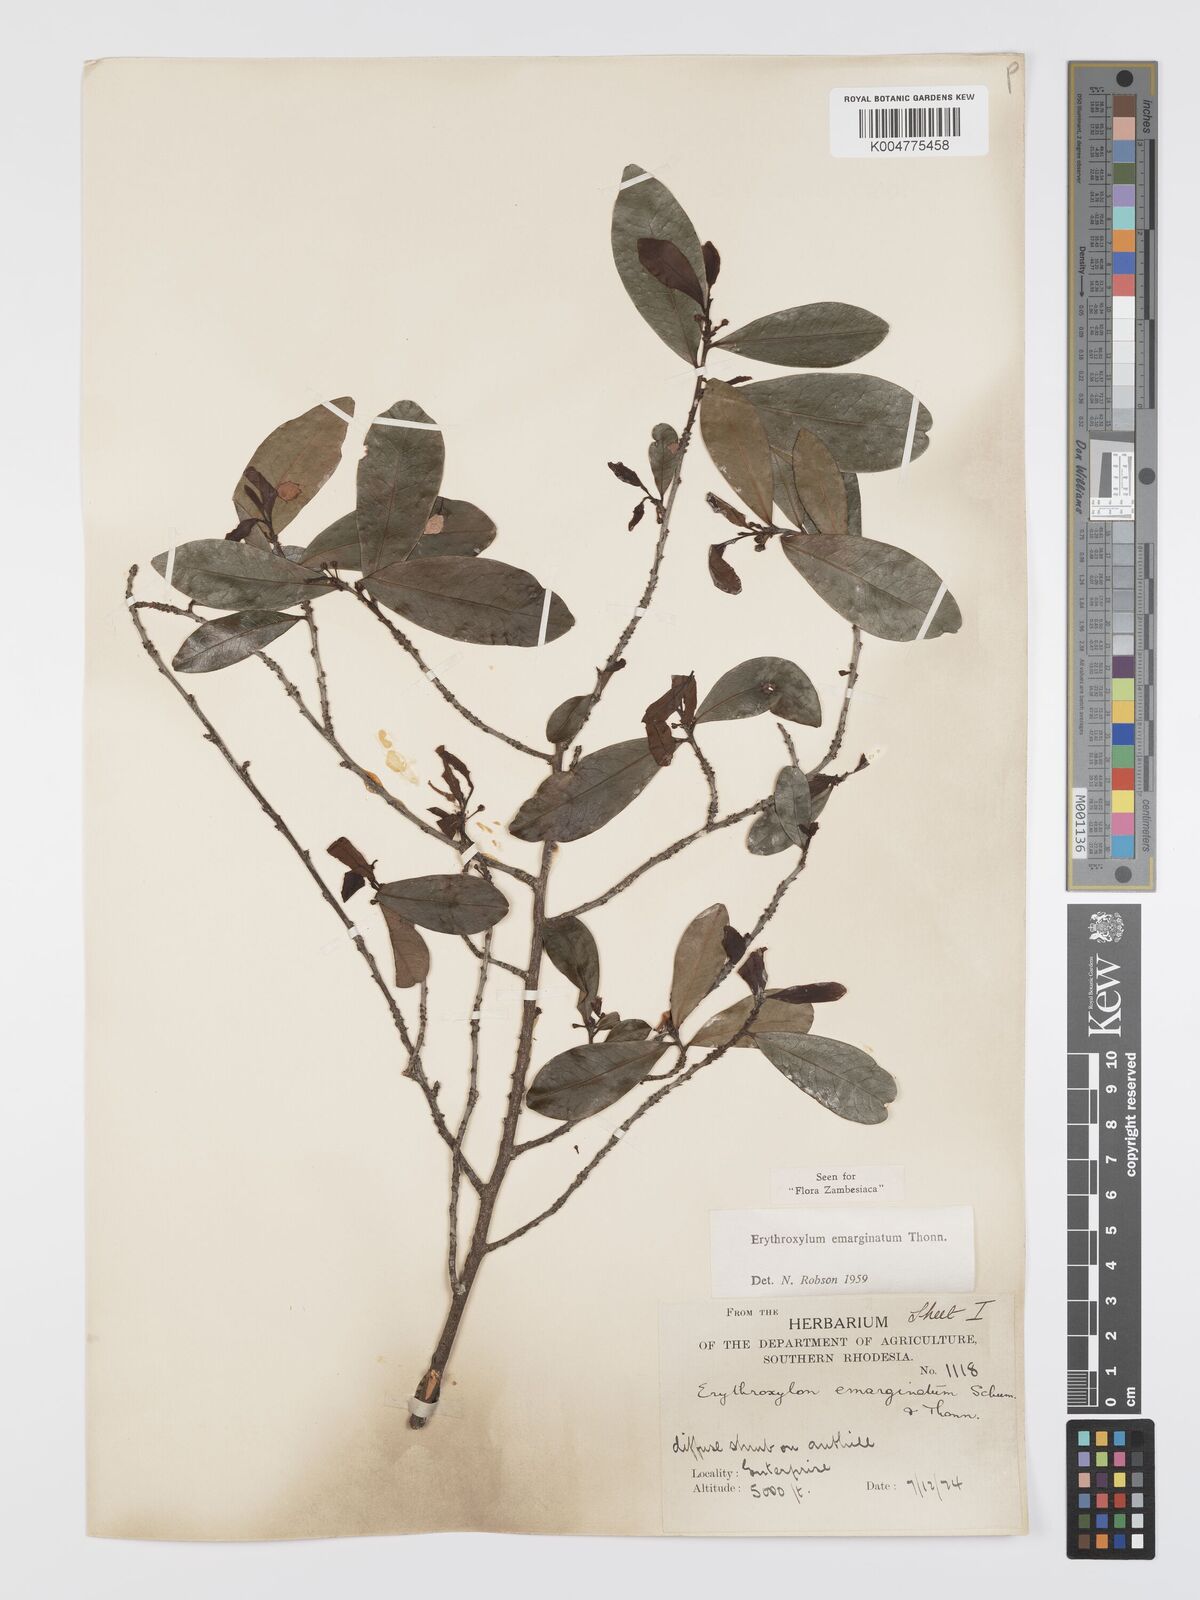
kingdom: Plantae
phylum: Tracheophyta
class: Magnoliopsida
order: Malpighiales
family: Erythroxylaceae
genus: Erythroxylum
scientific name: Erythroxylum emarginatum
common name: African coca-tree
